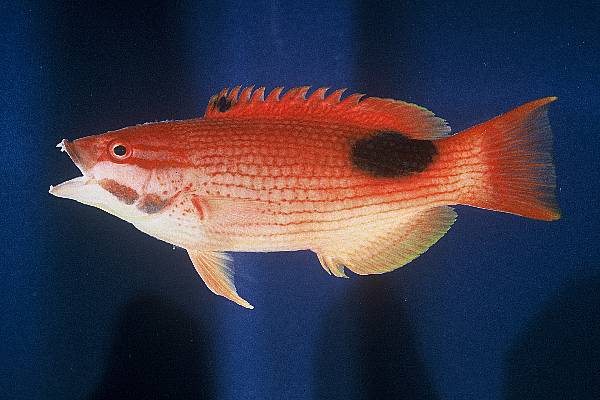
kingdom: Animalia
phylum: Chordata
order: Perciformes
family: Labridae
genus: Bodianus
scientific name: Bodianus bilunulatus
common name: Tarry hogfish
